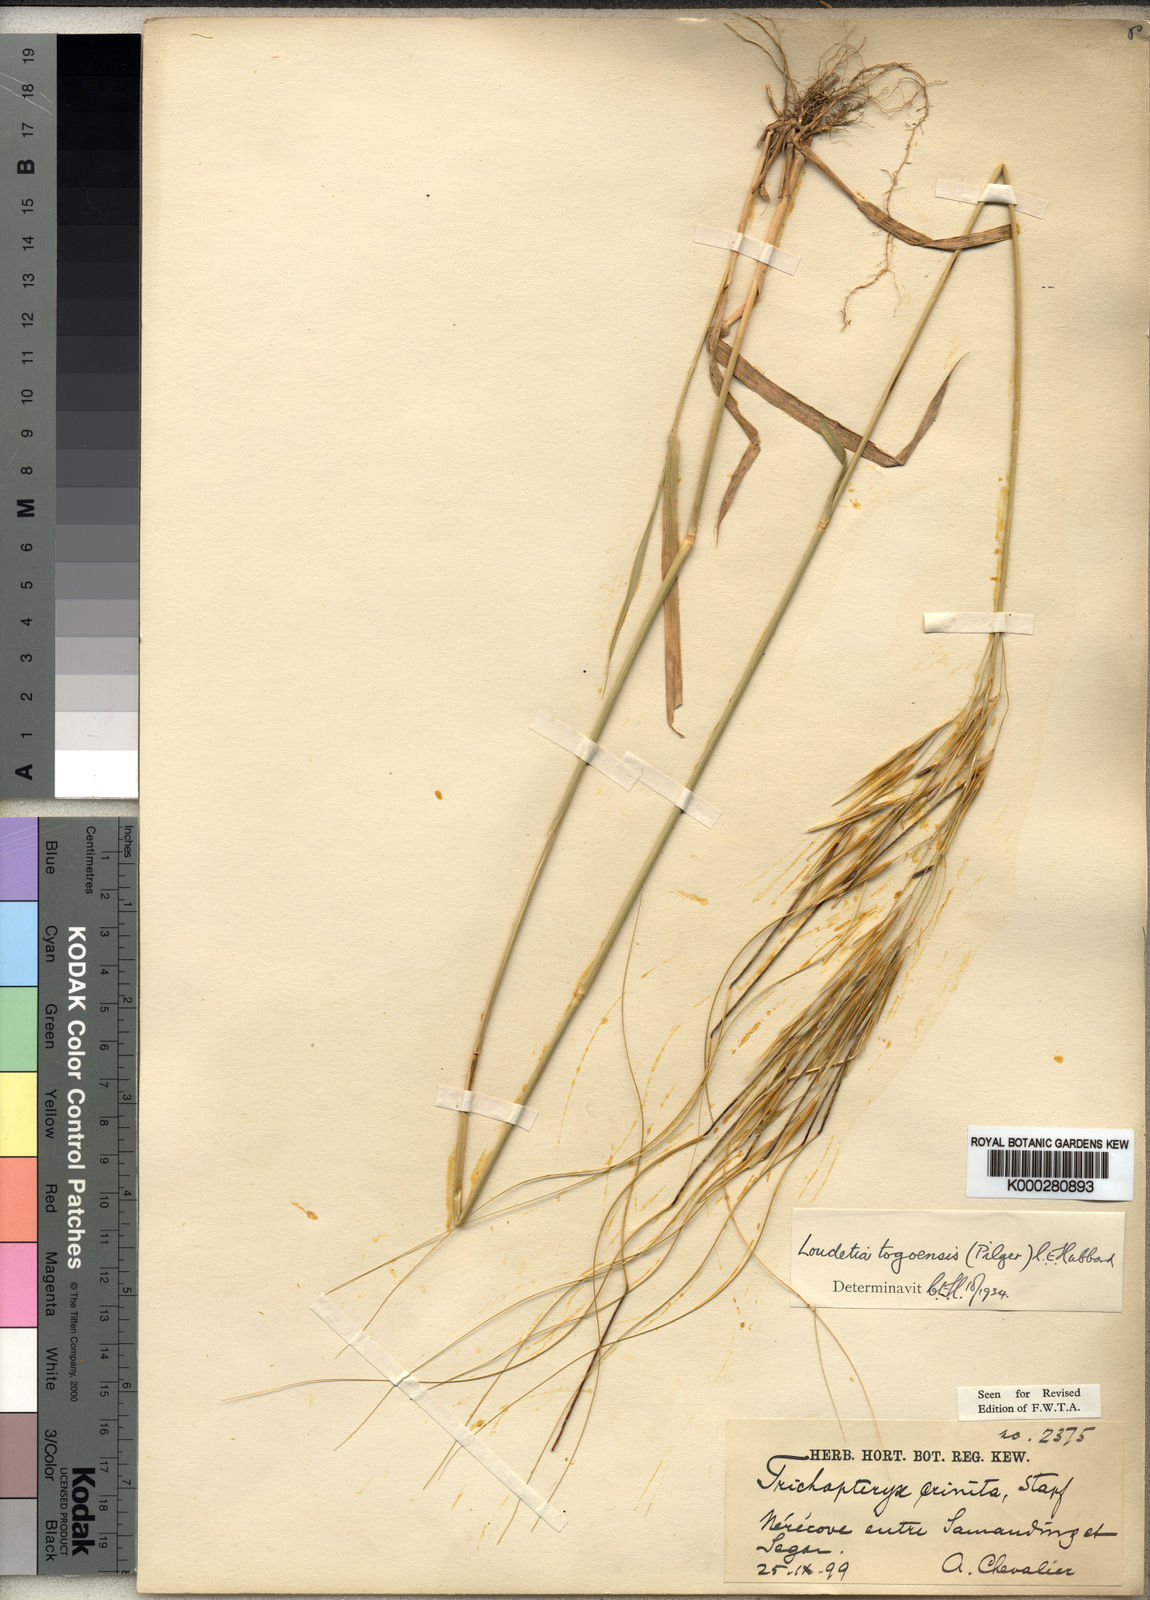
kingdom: Plantae
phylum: Tracheophyta
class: Liliopsida
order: Poales
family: Poaceae
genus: Loudetia
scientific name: Loudetia togoensis
